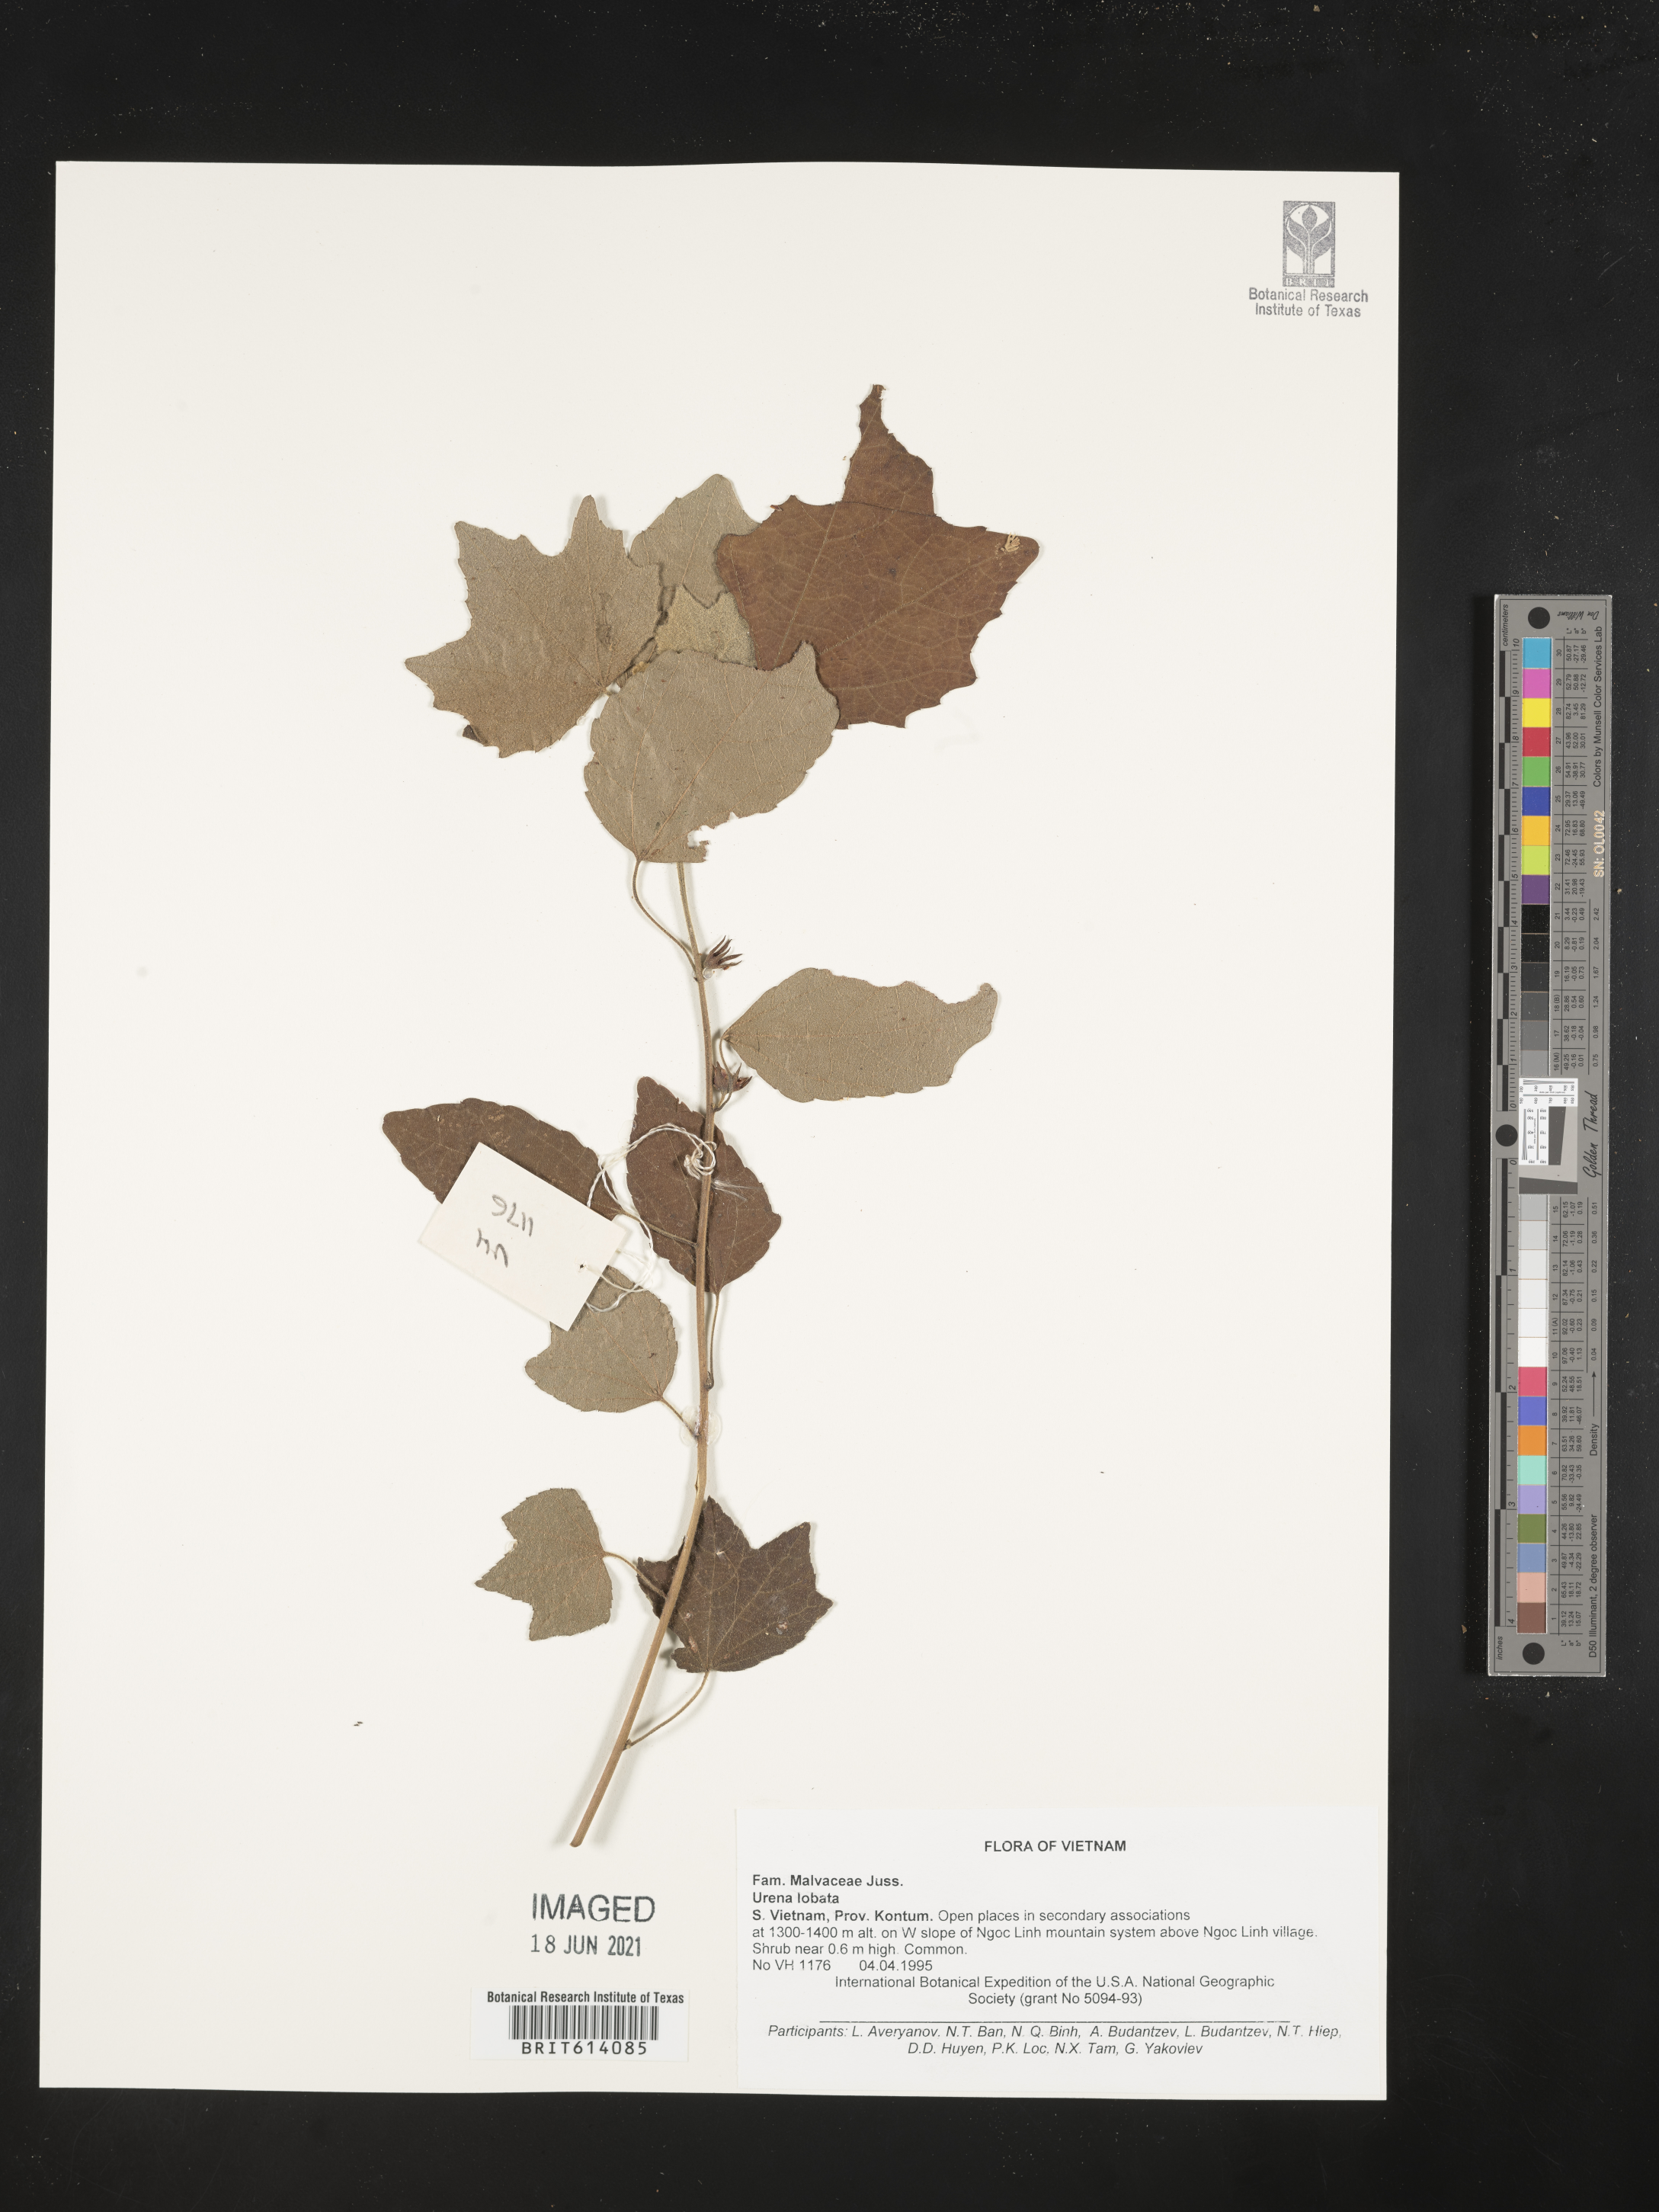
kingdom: Plantae
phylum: Tracheophyta
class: Magnoliopsida
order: Malvales
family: Malvaceae
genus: Urena
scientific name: Urena lobata
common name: Caesarweed
